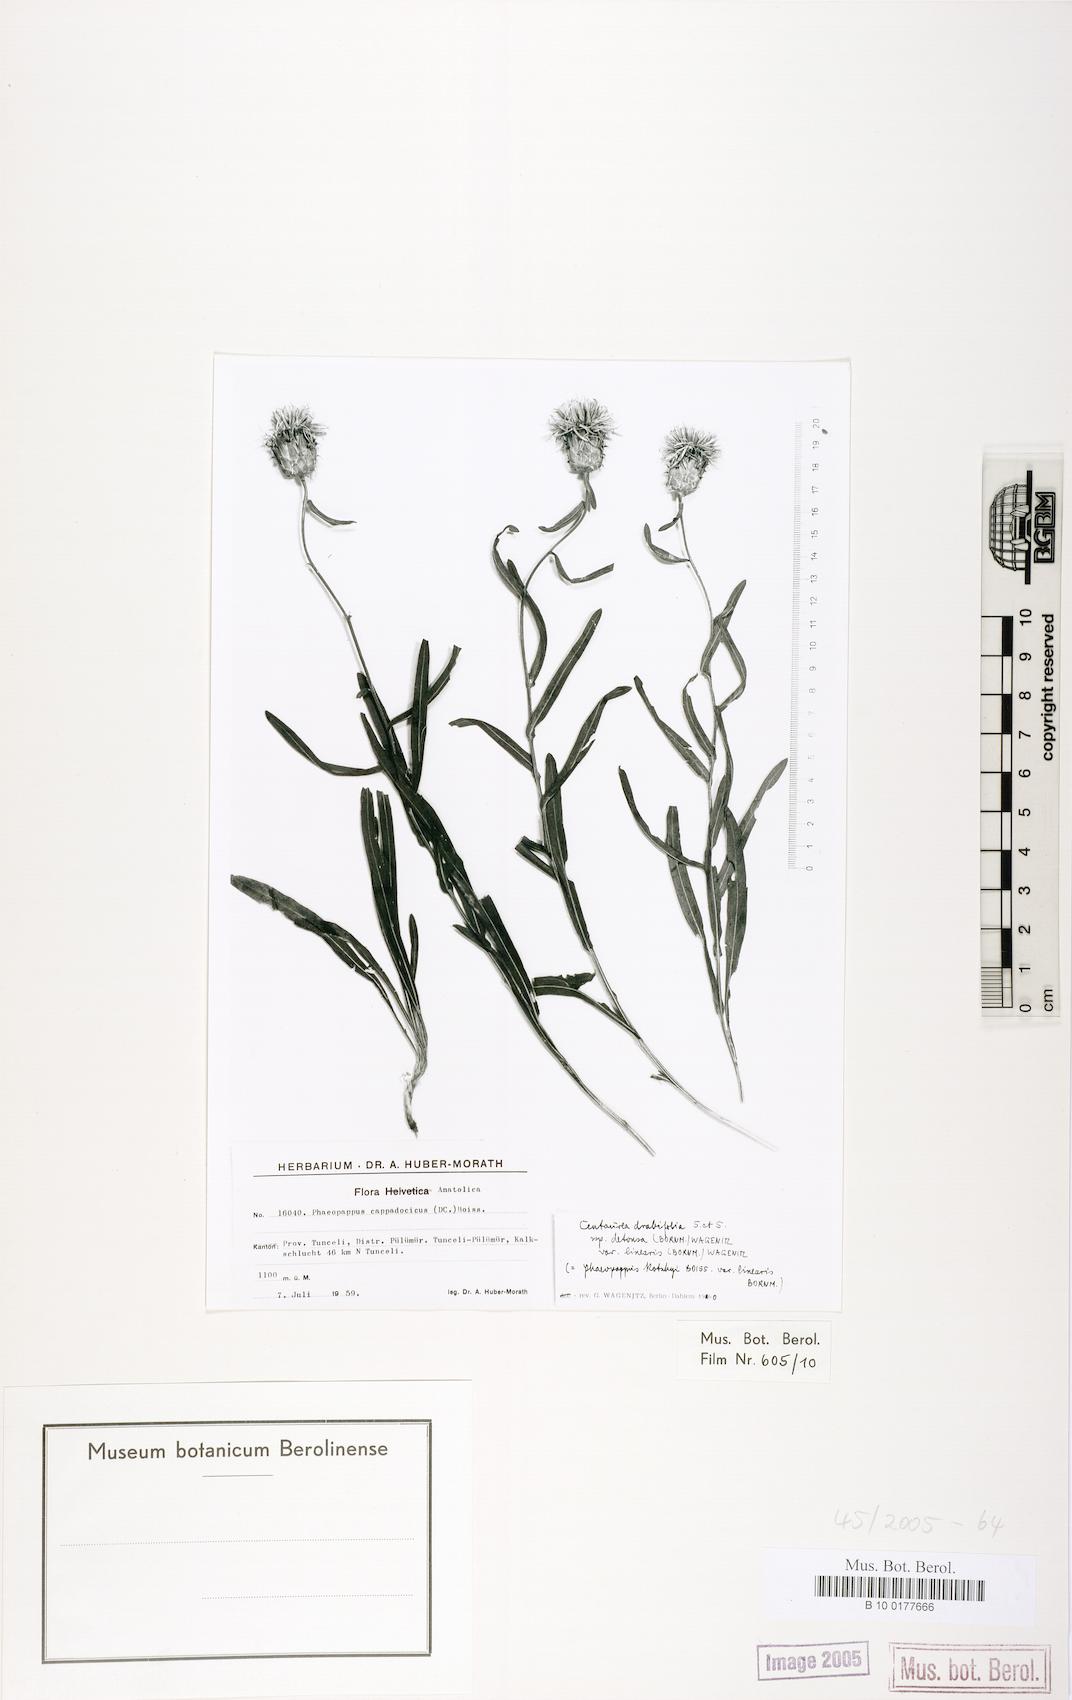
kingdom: Plantae
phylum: Tracheophyta
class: Magnoliopsida
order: Asterales
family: Asteraceae
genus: Centaurea
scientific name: Centaurea kotschyi
